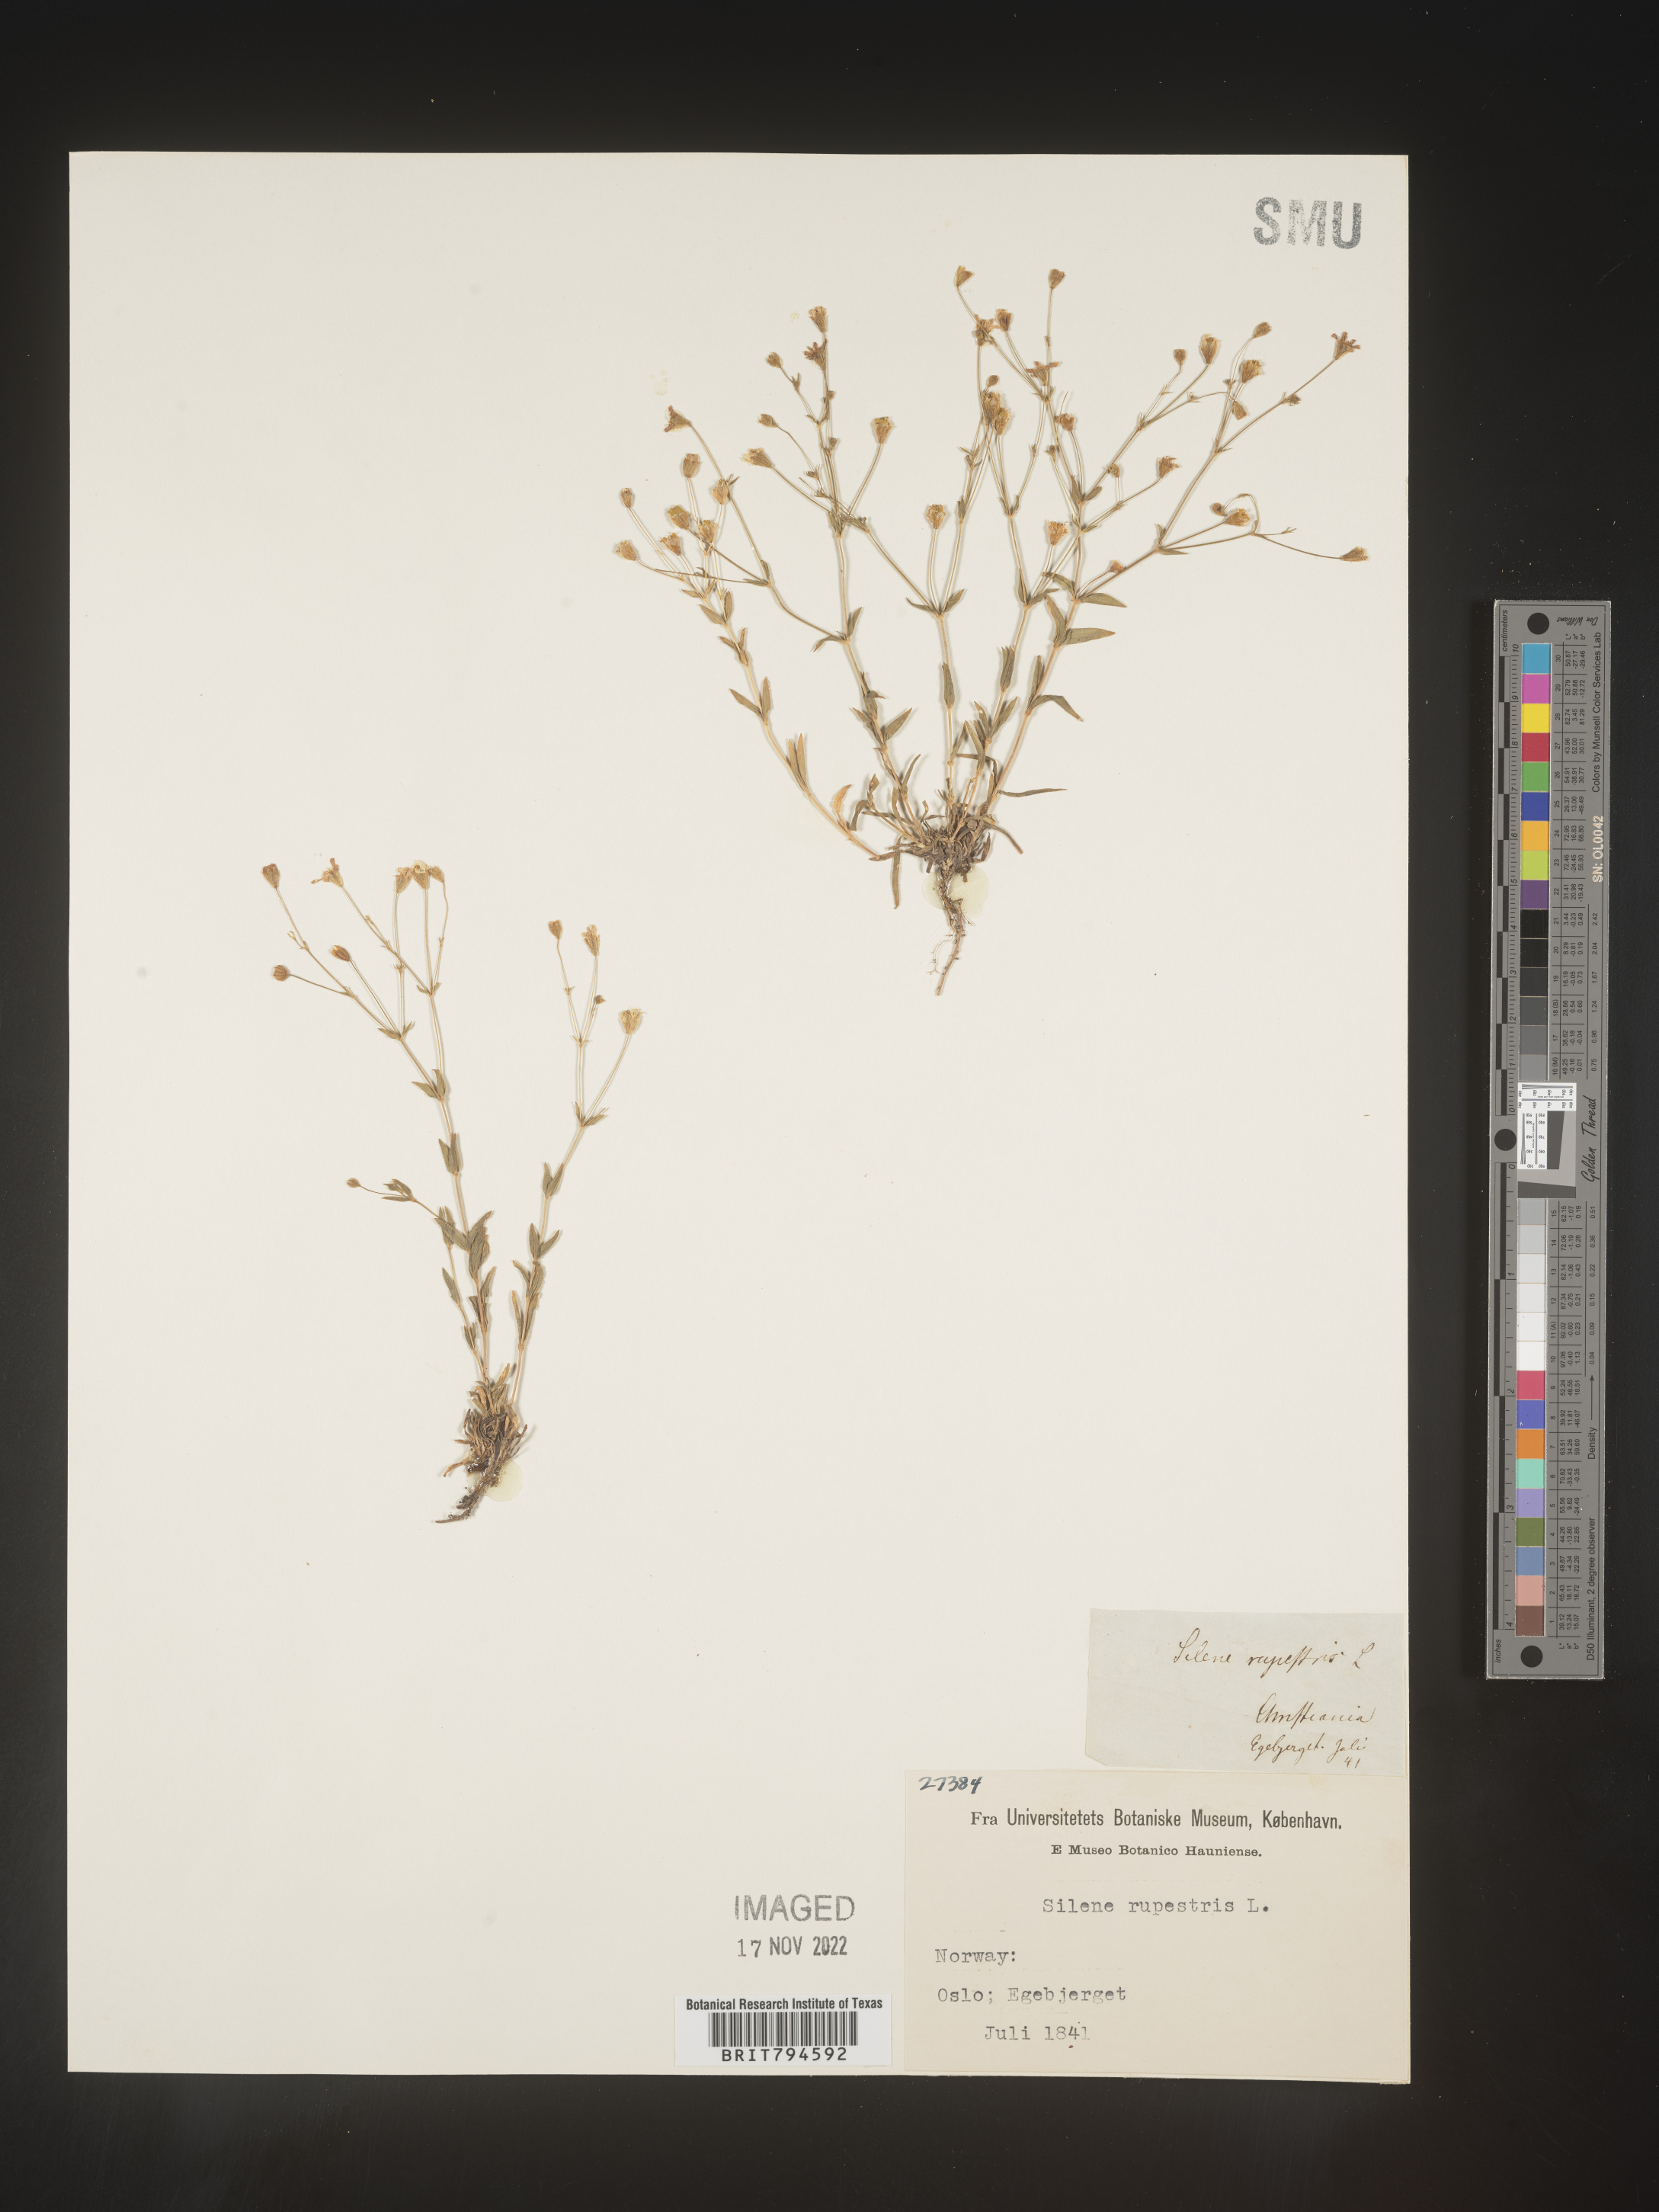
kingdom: Plantae
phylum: Tracheophyta
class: Magnoliopsida
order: Caryophyllales
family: Caryophyllaceae
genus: Atocion
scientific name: Atocion rupestre
